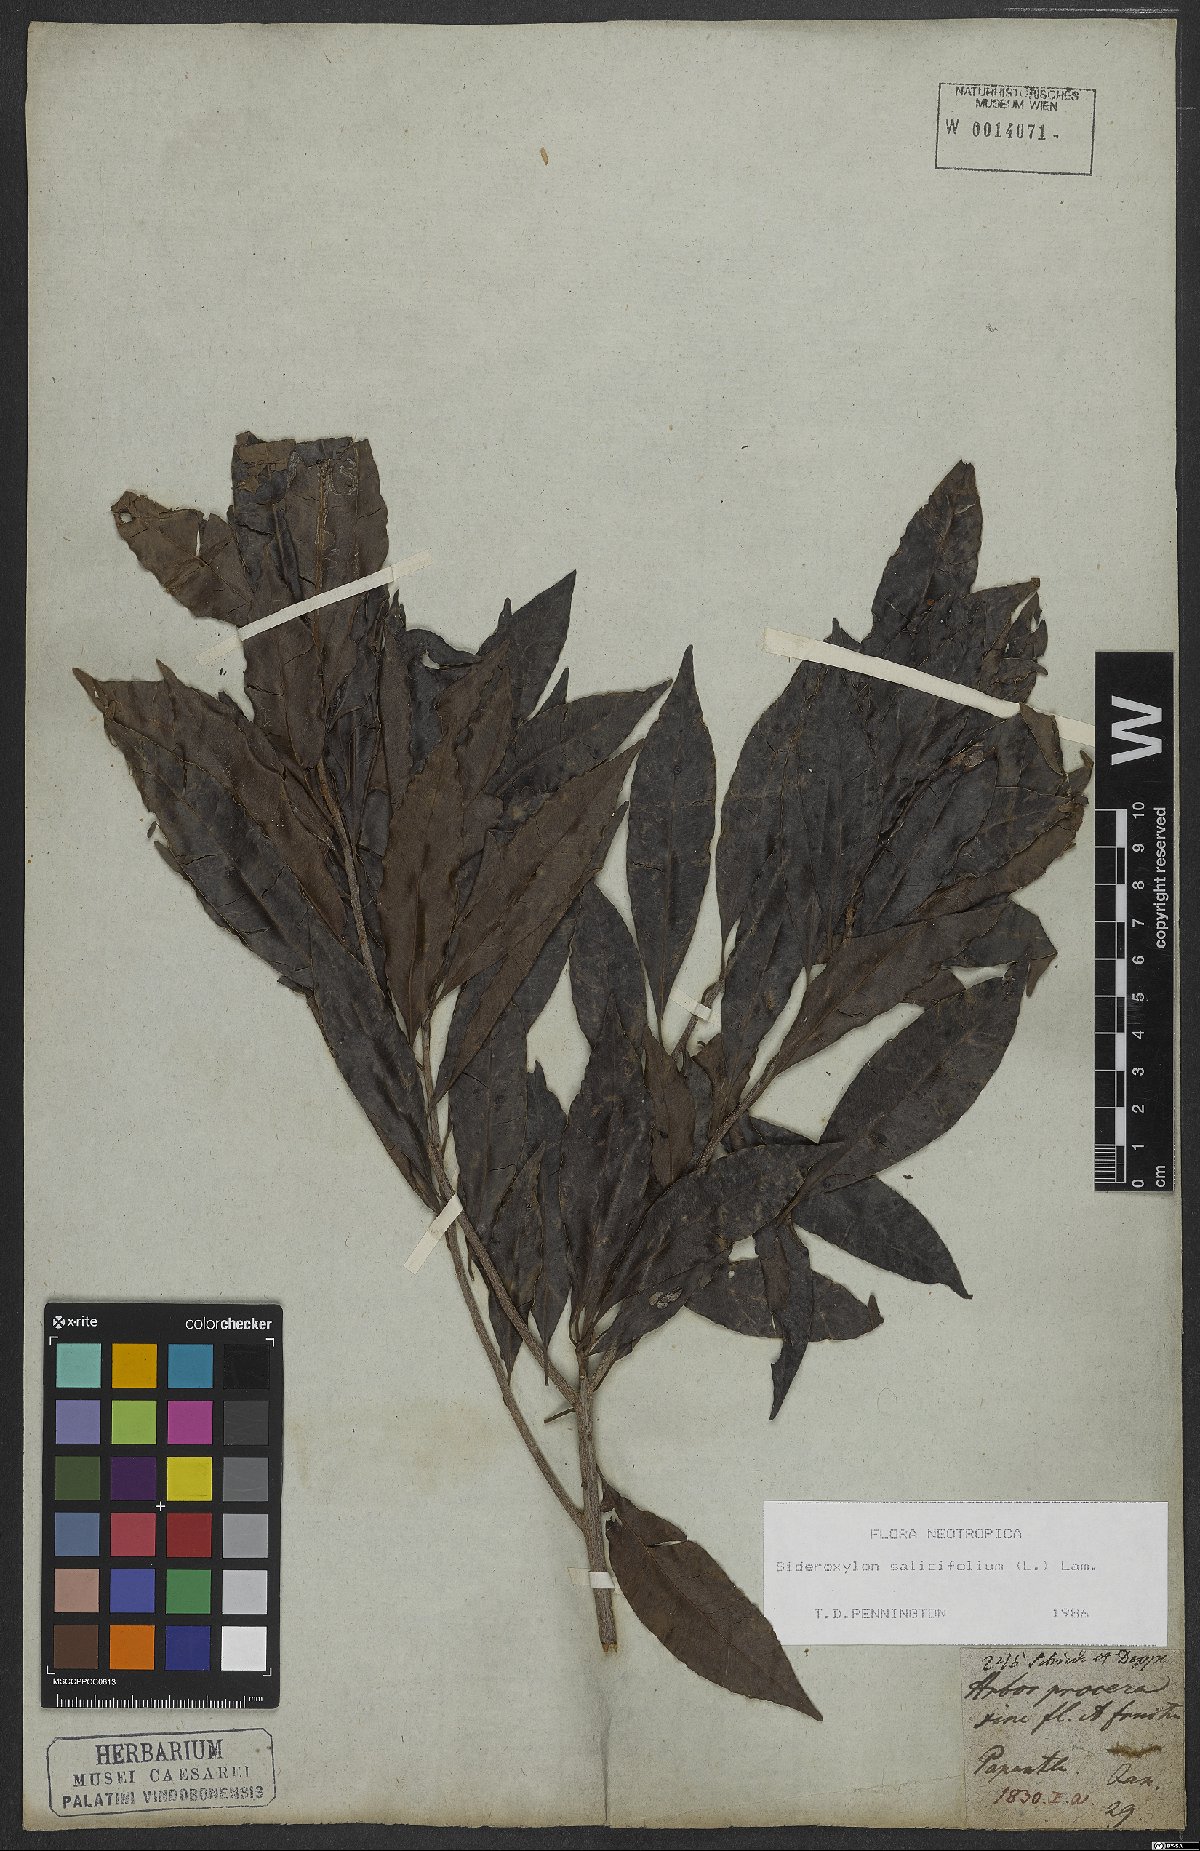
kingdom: Plantae
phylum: Tracheophyta
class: Magnoliopsida
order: Ericales
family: Sapotaceae
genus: Sideroxylon
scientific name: Sideroxylon salicifolium
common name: White bully
